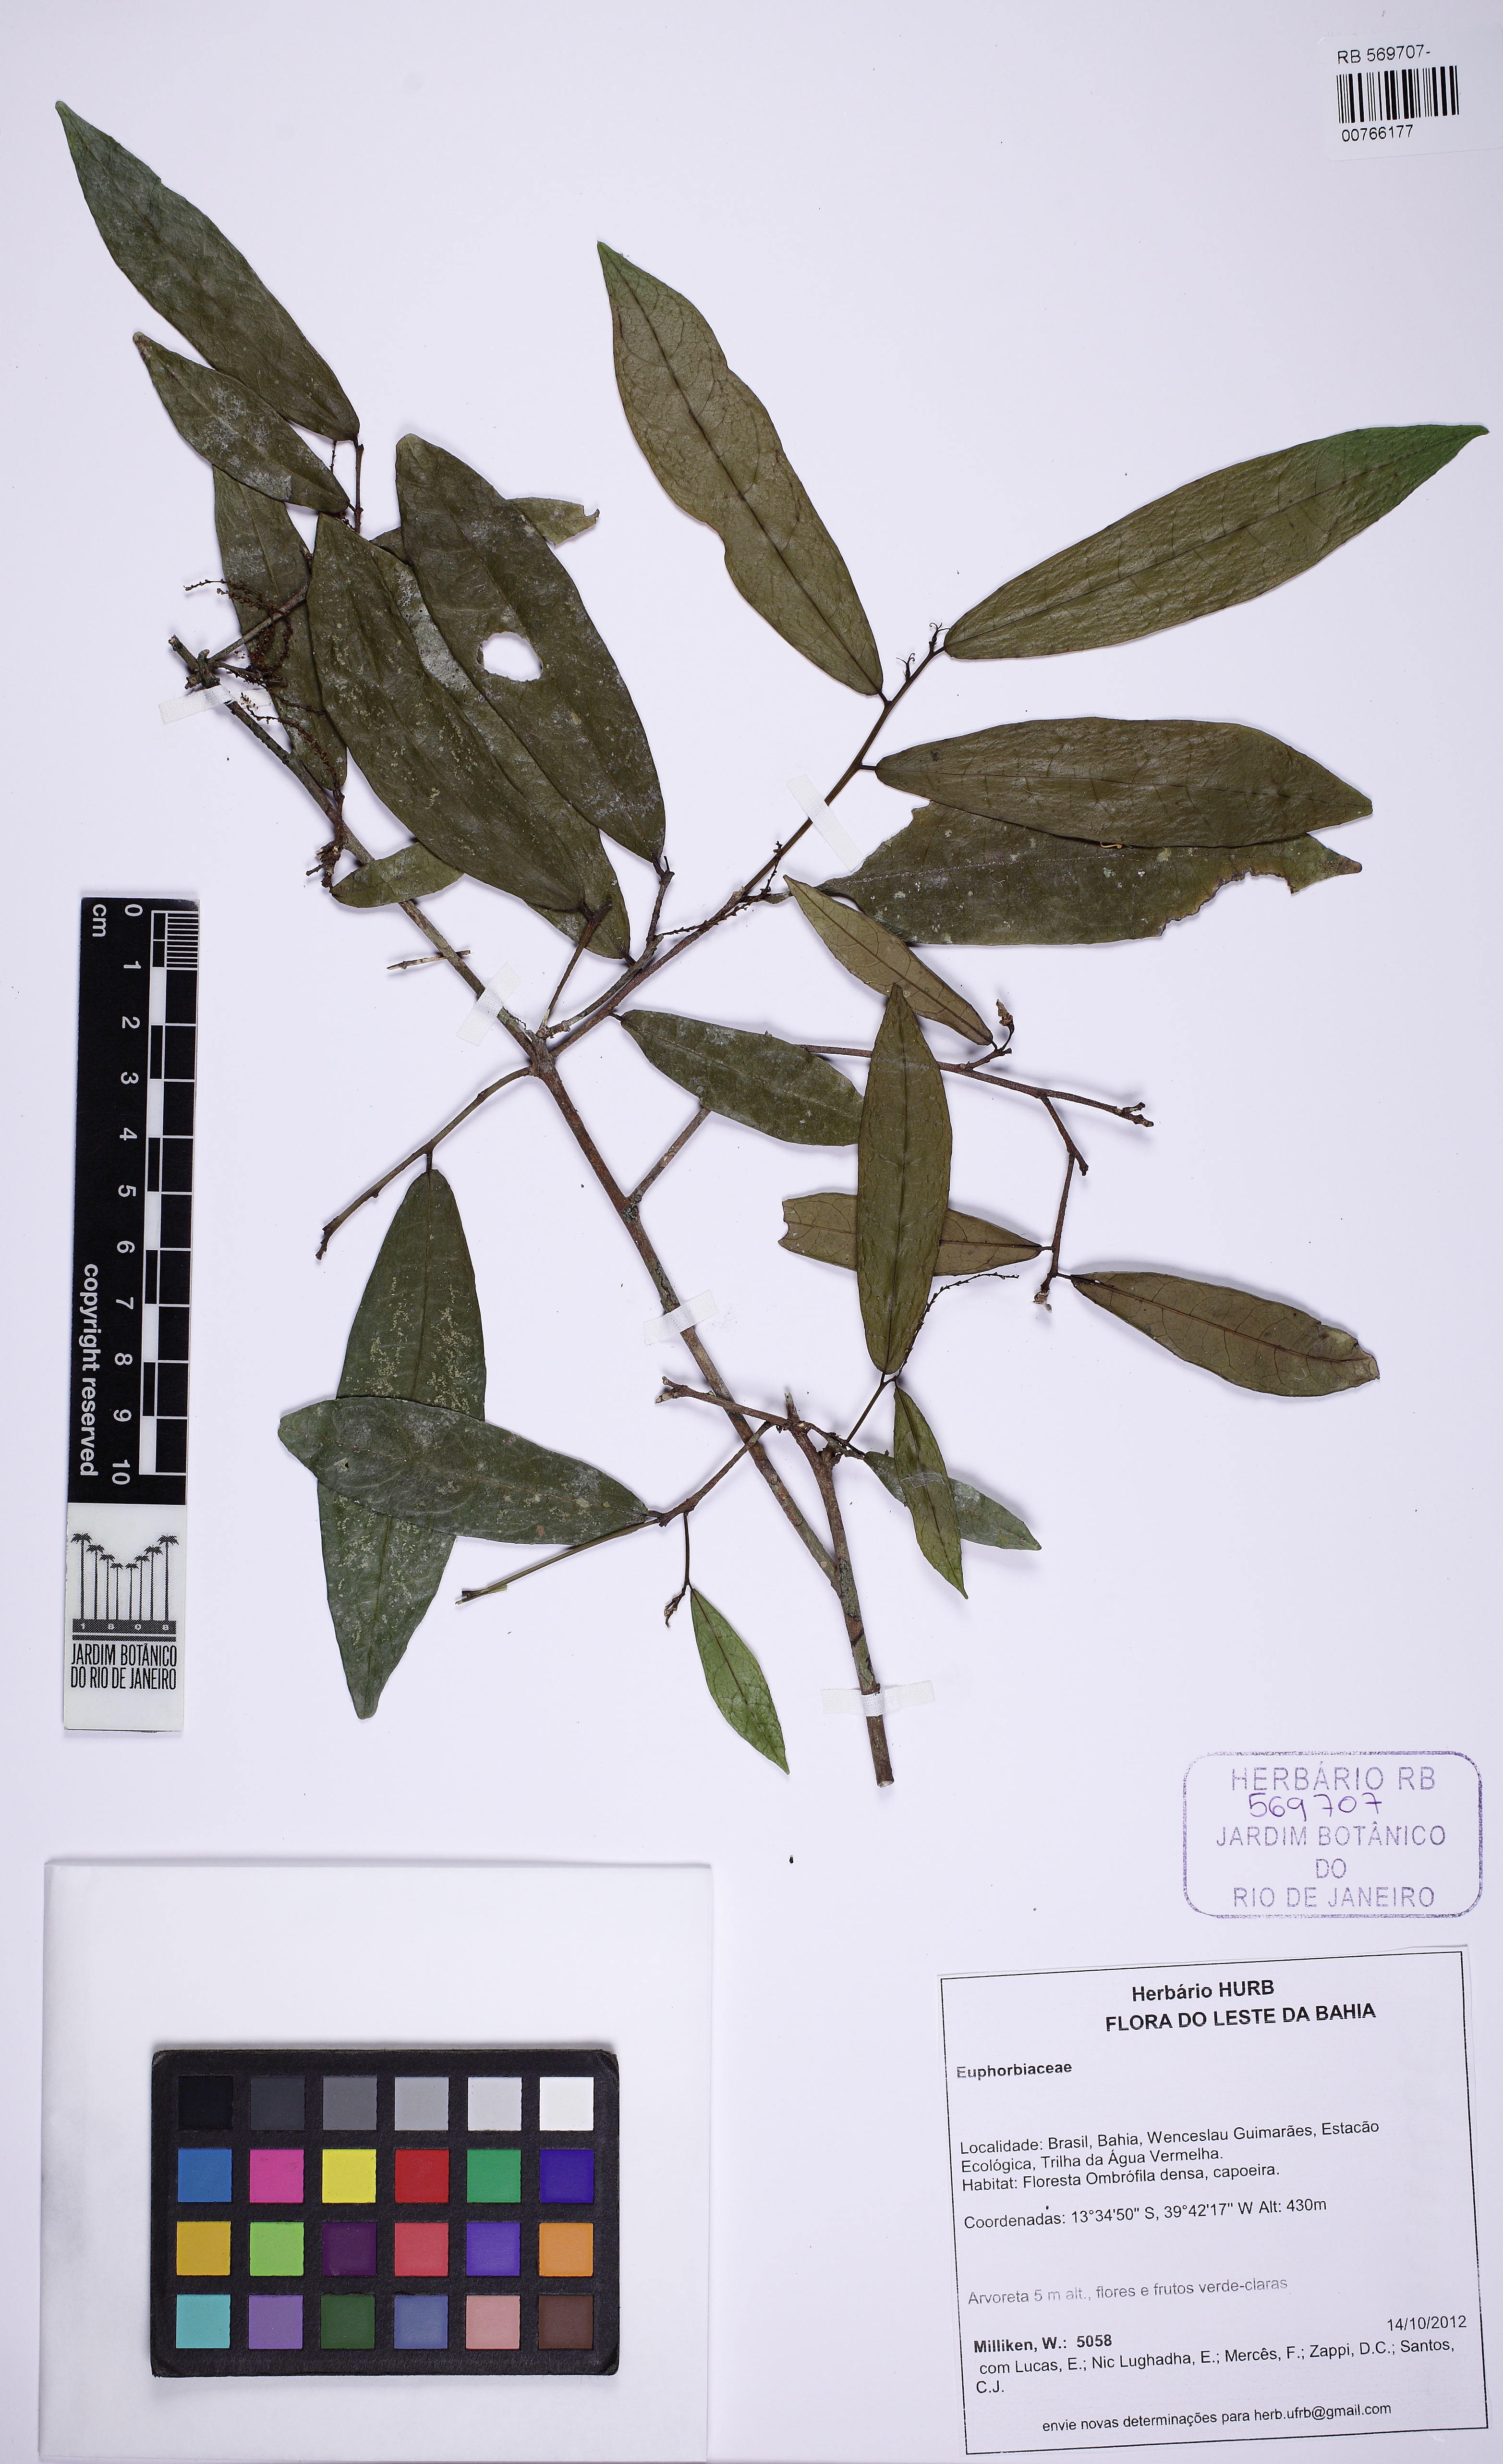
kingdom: Plantae
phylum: Tracheophyta
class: Magnoliopsida
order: Malpighiales
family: Euphorbiaceae
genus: Gymnanthes
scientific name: Gymnanthes glabrata
